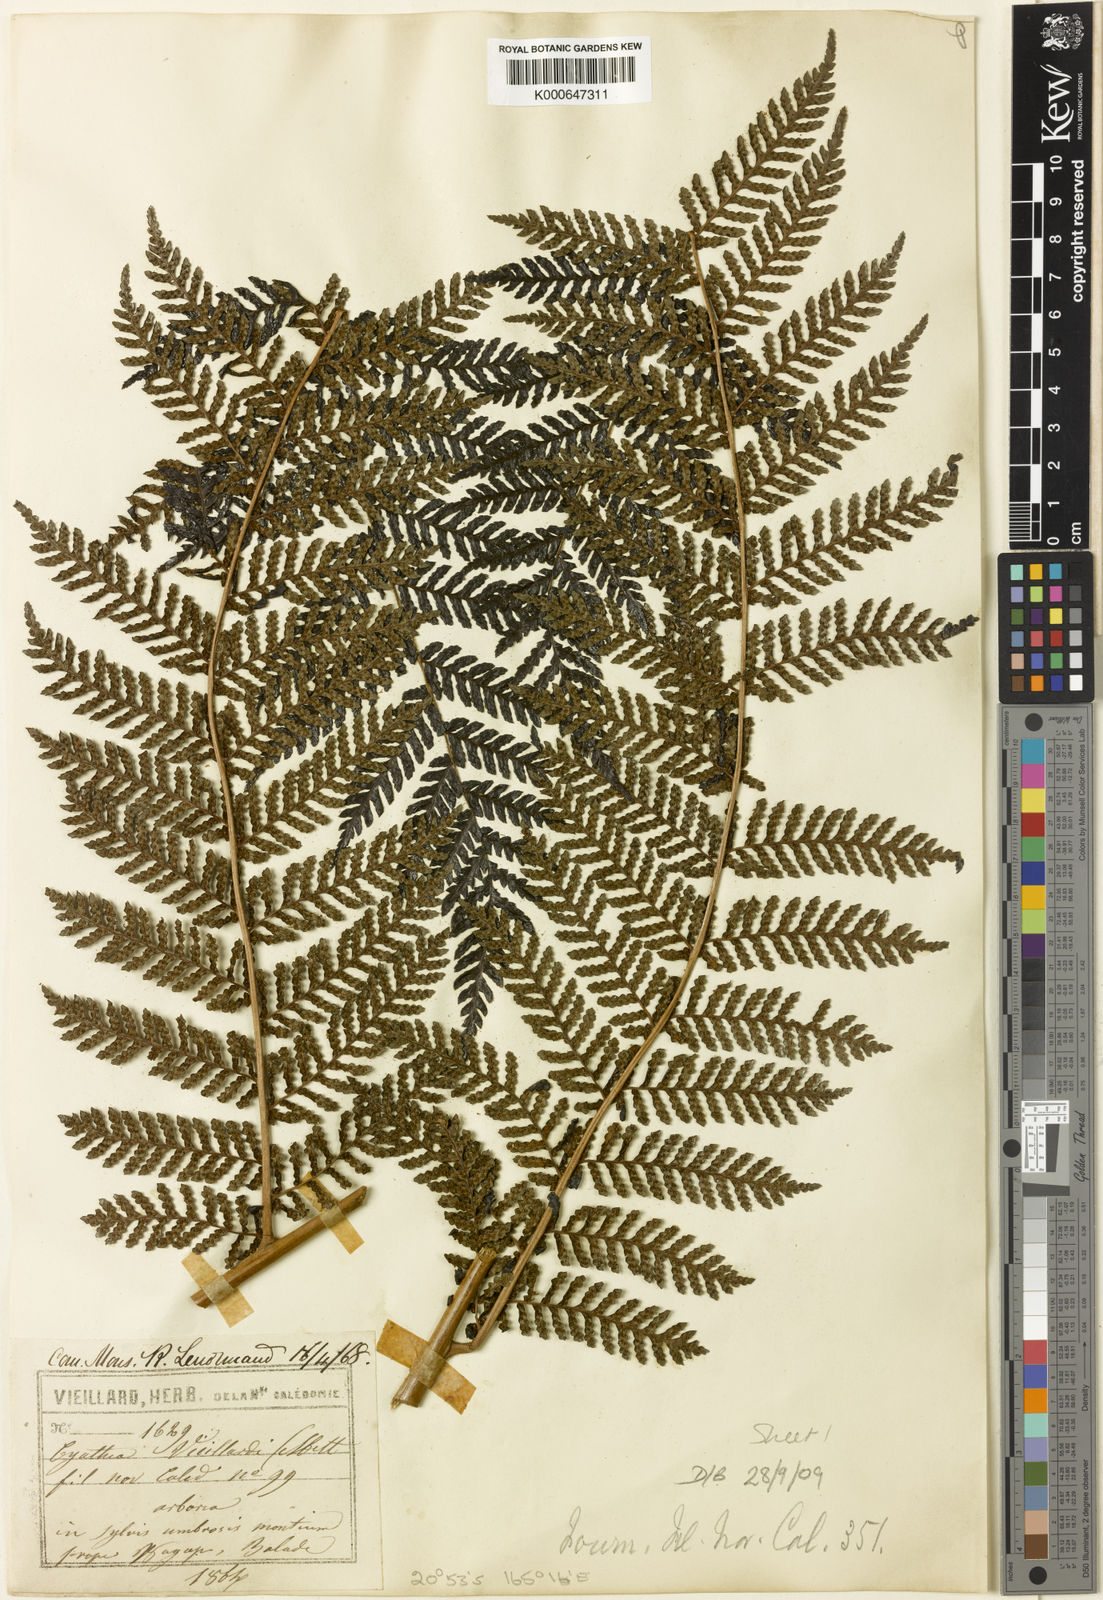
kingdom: Plantae
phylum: Tracheophyta
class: Polypodiopsida
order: Cyatheales
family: Cyatheaceae
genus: Alsophila
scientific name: Alsophila vieillardii
